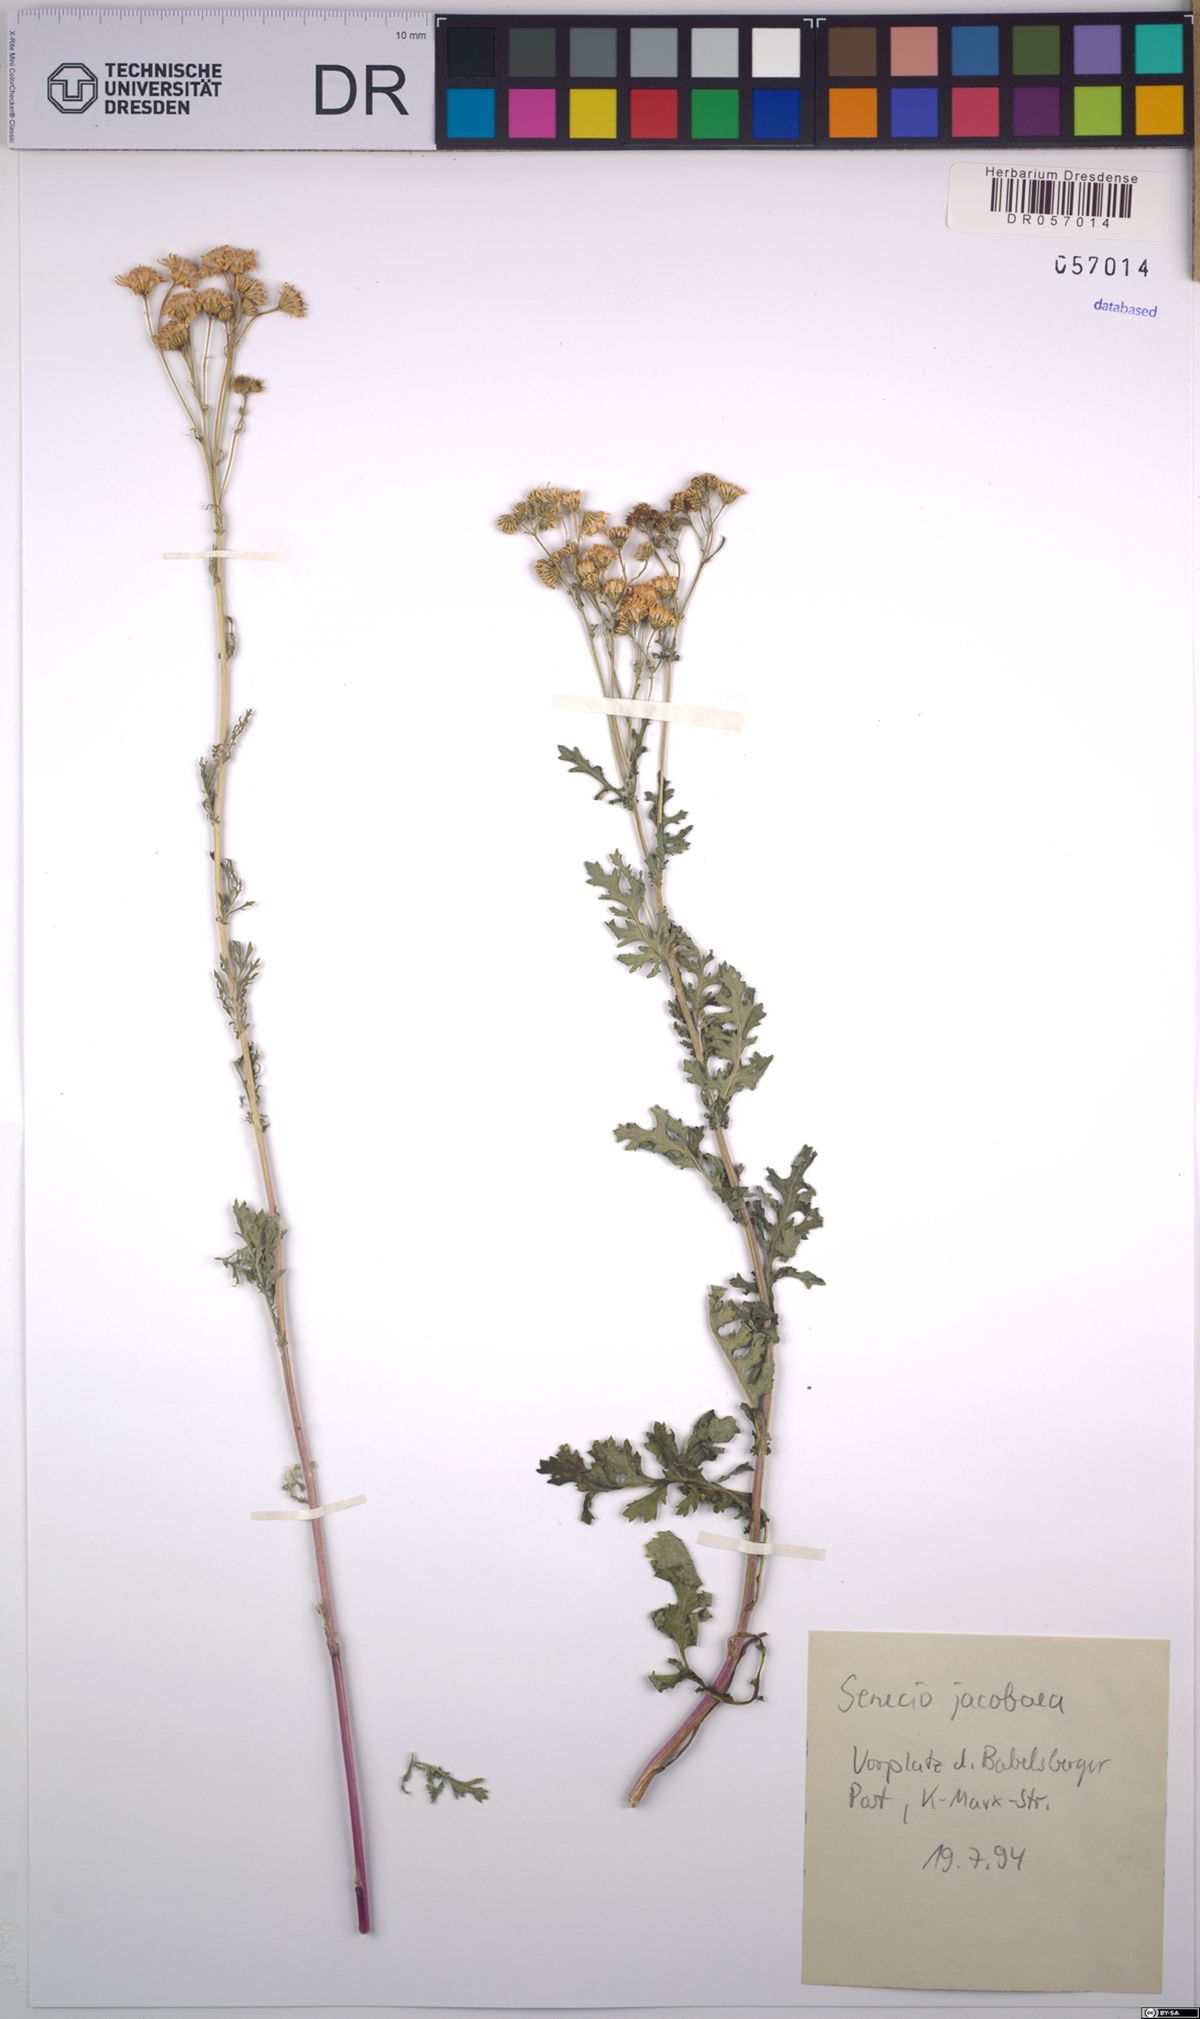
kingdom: Plantae
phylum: Tracheophyta
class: Magnoliopsida
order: Asterales
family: Asteraceae
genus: Jacobaea
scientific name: Jacobaea vulgaris
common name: Stinking willie
